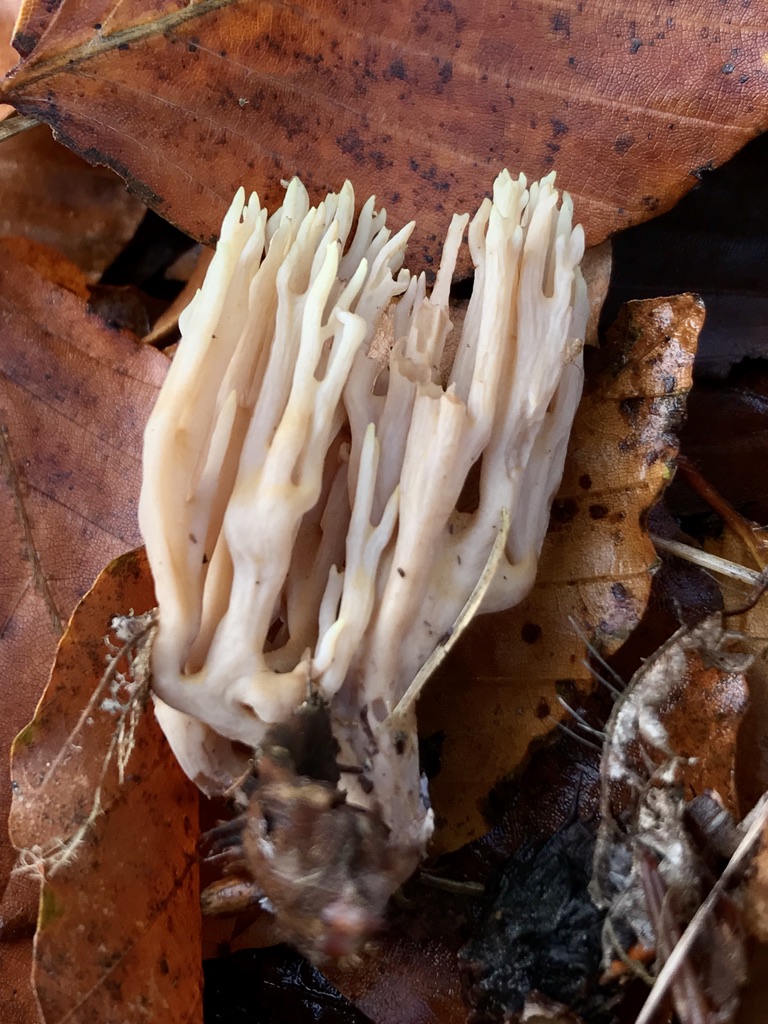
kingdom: Fungi
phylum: Basidiomycota
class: Agaricomycetes
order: Gomphales
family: Gomphaceae
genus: Ramaria
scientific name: Ramaria stricta
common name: rank koralsvamp
